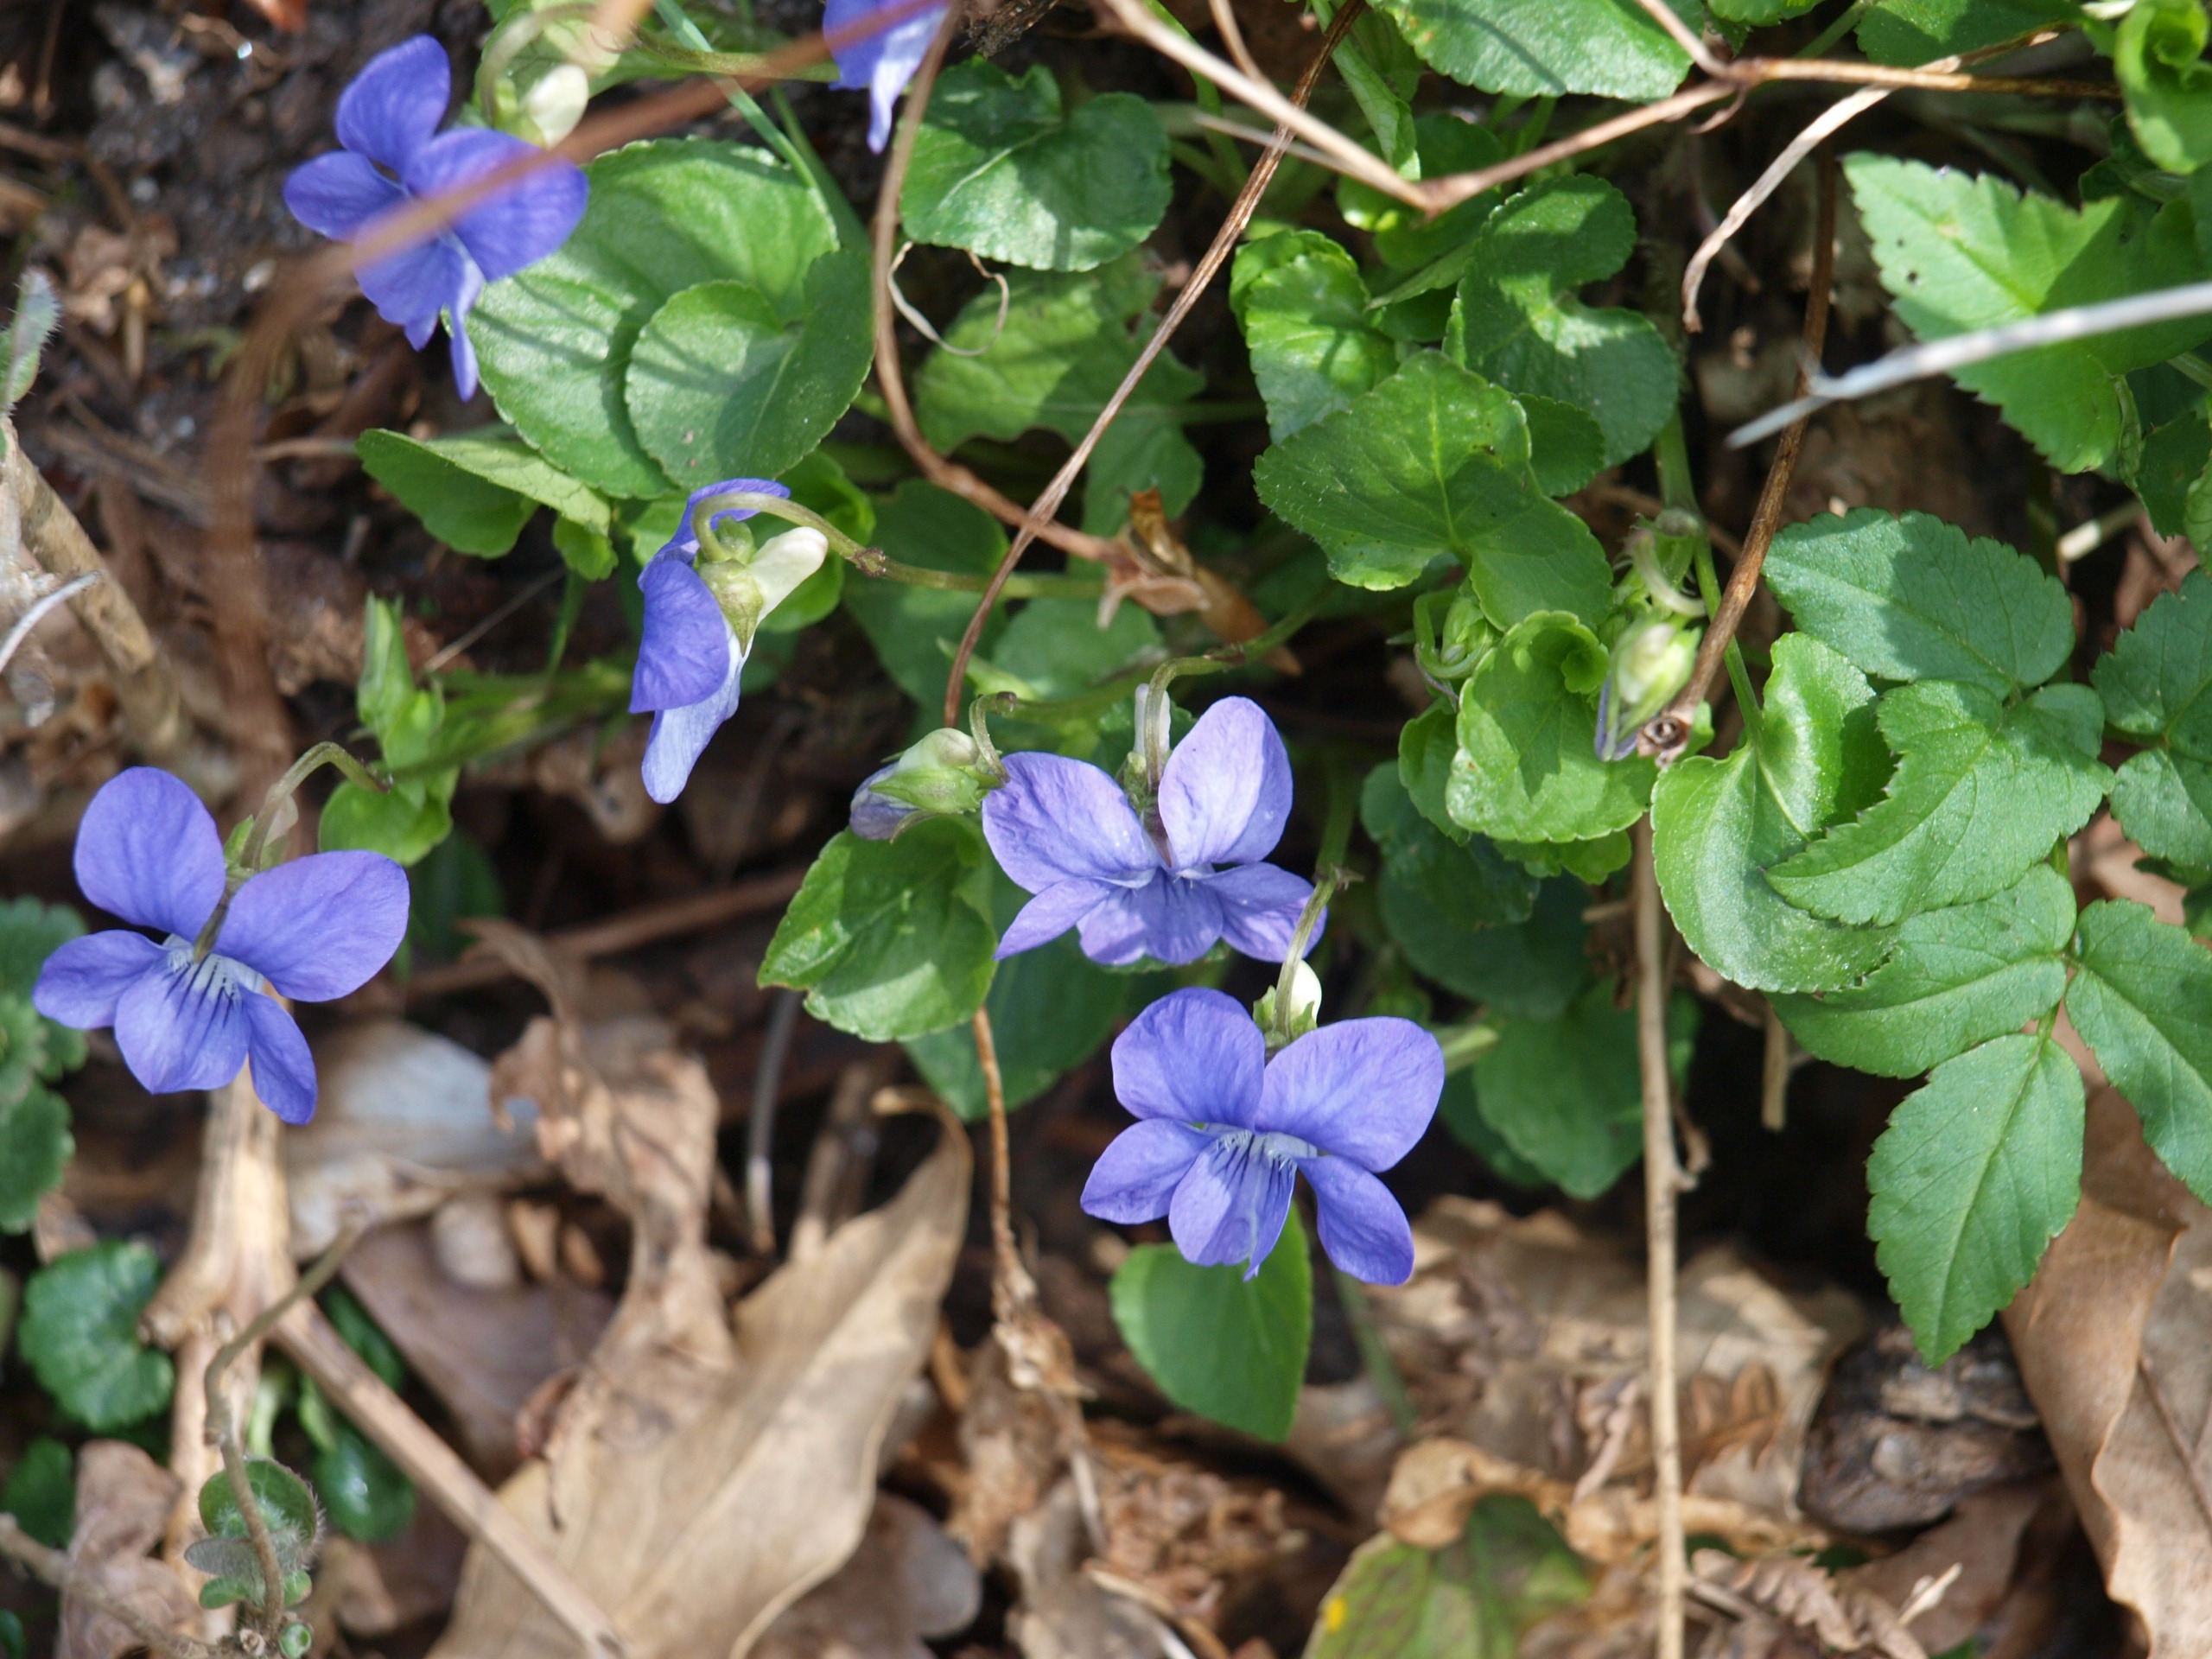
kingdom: Plantae
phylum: Tracheophyta
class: Magnoliopsida
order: Malpighiales
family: Violaceae
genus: Viola
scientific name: Viola riviniana
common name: Krat-viol
